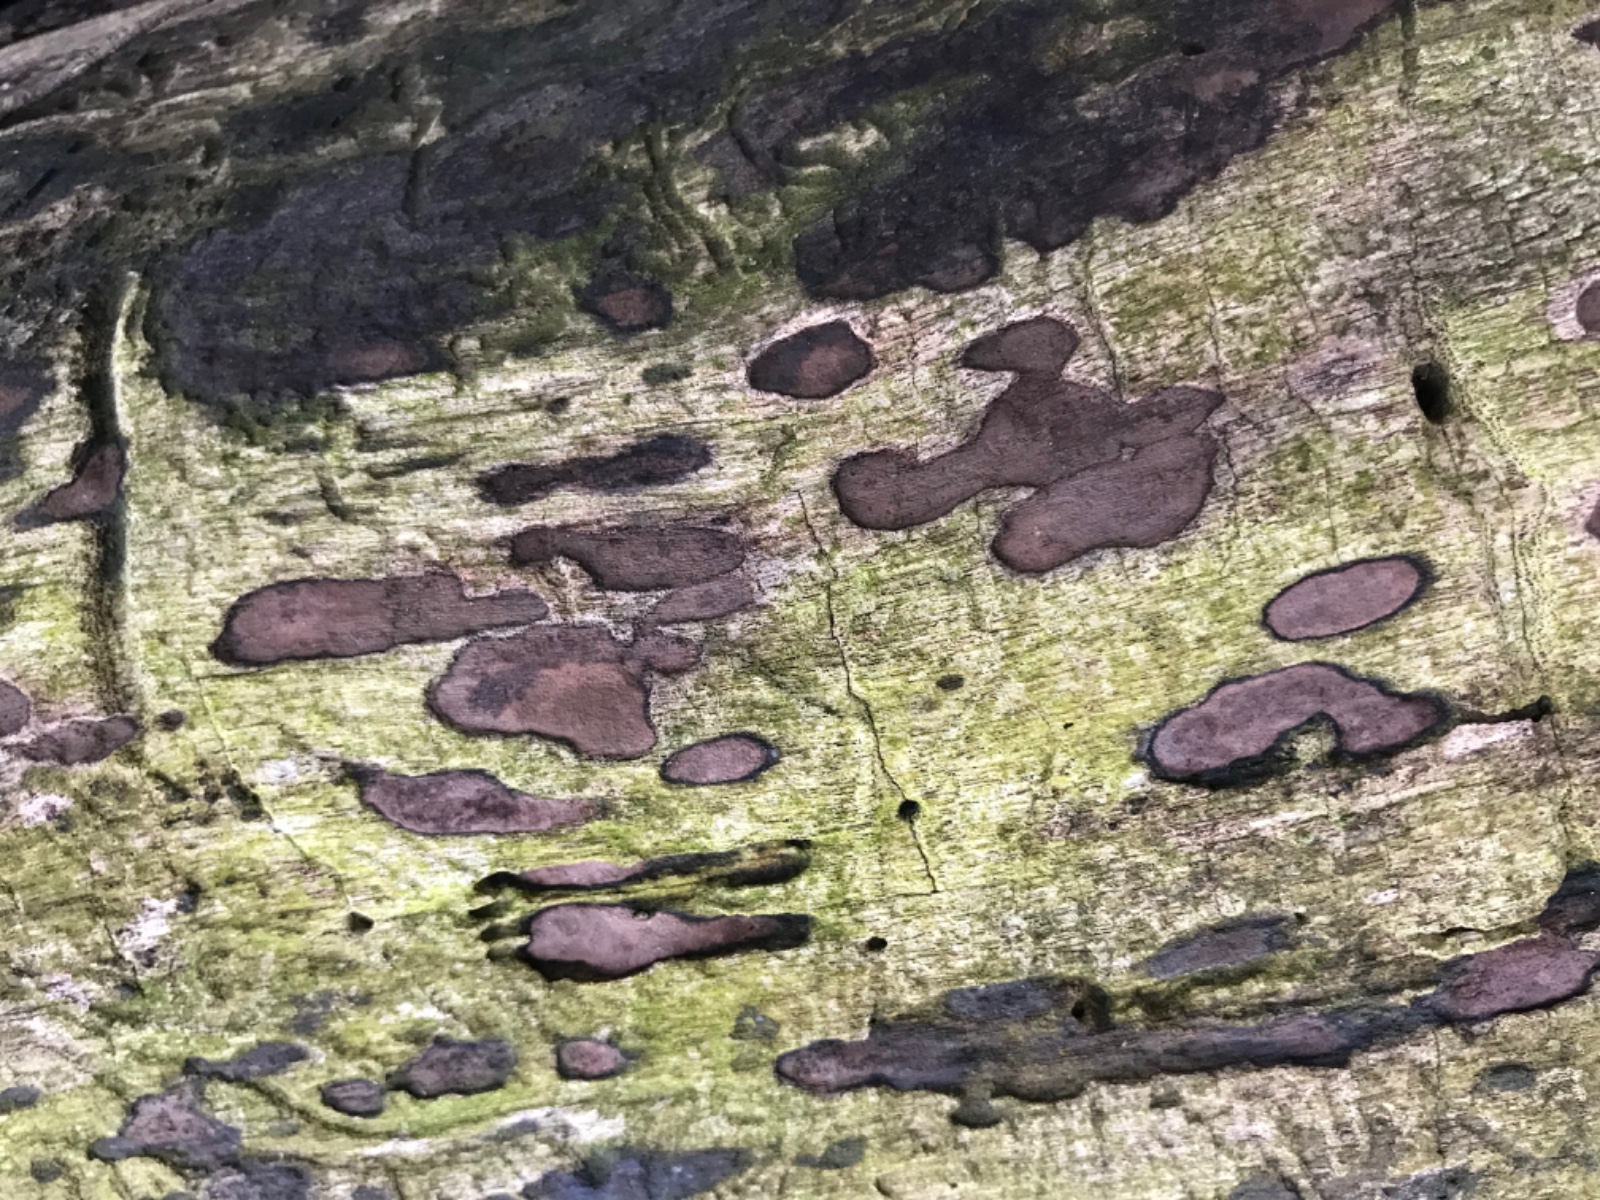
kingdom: Fungi
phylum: Ascomycota
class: Sordariomycetes
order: Xylariales
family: Hypoxylaceae
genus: Hypoxylon
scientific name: Hypoxylon petriniae
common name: nedsænket kulbær
